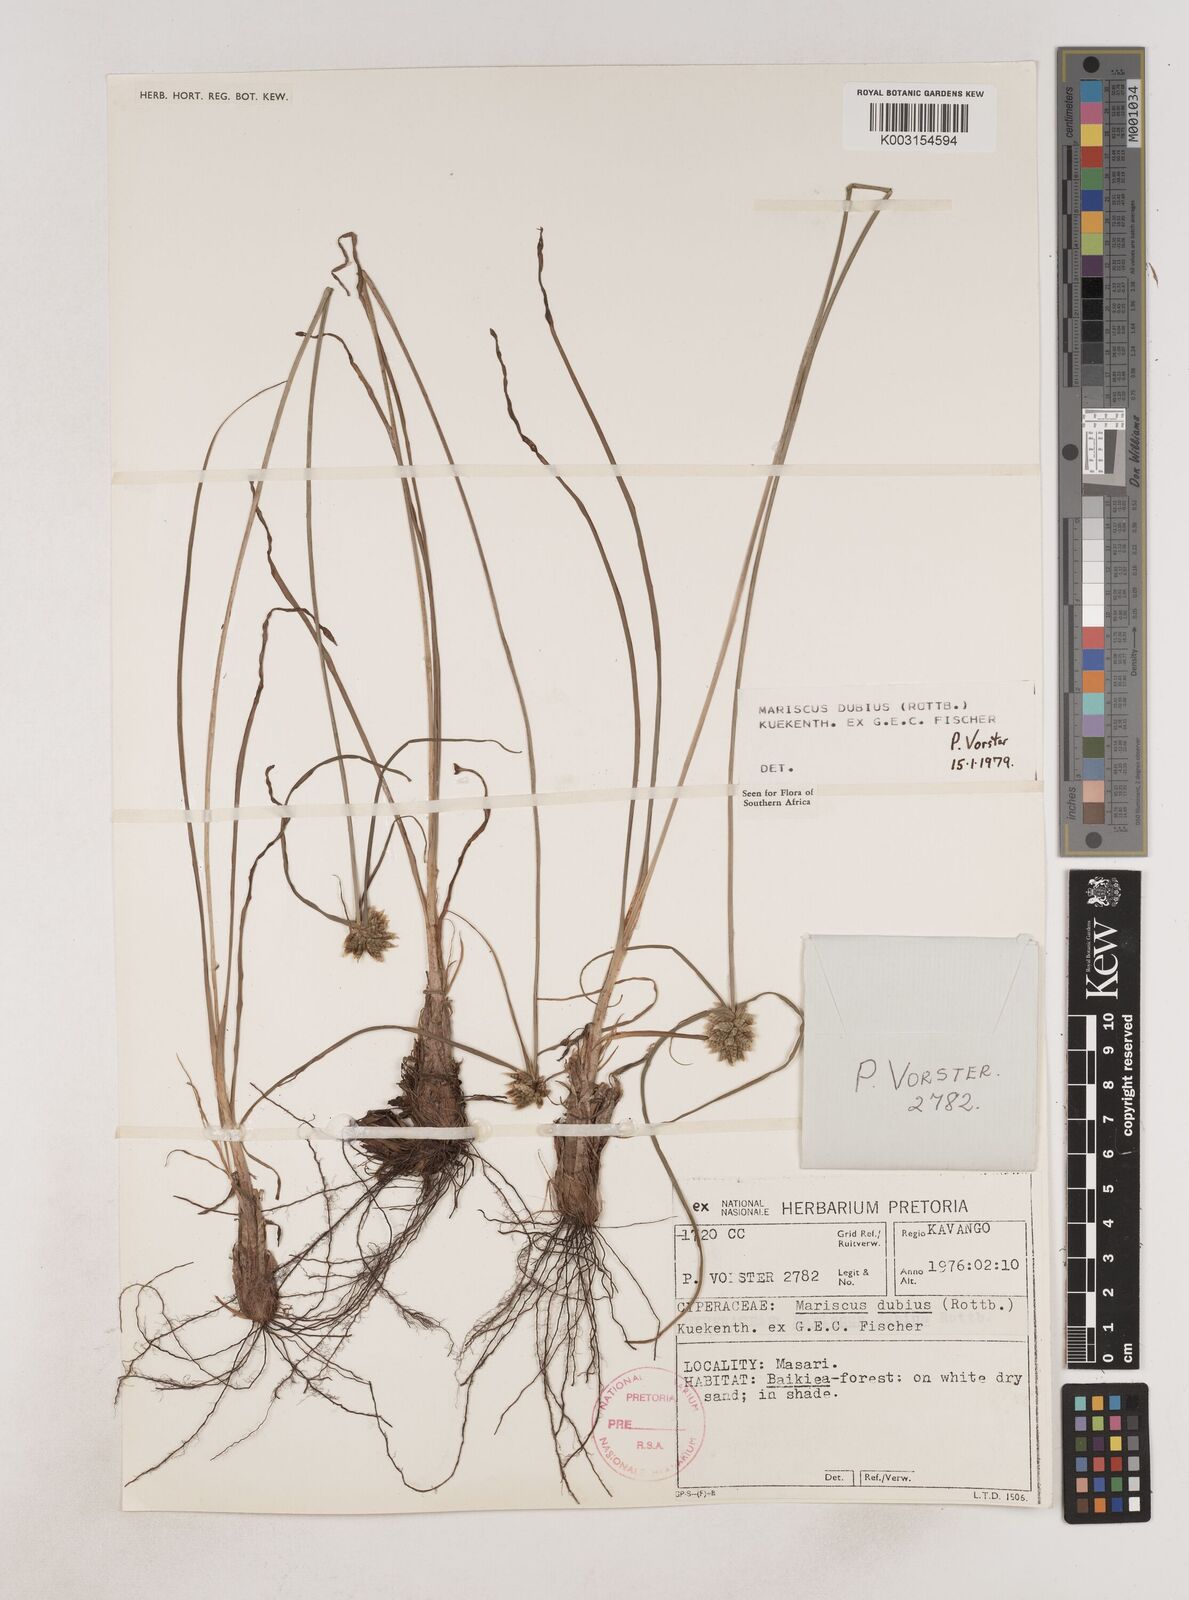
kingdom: Plantae
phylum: Tracheophyta
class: Liliopsida
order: Poales
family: Cyperaceae
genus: Cyperus
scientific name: Cyperus dubius
